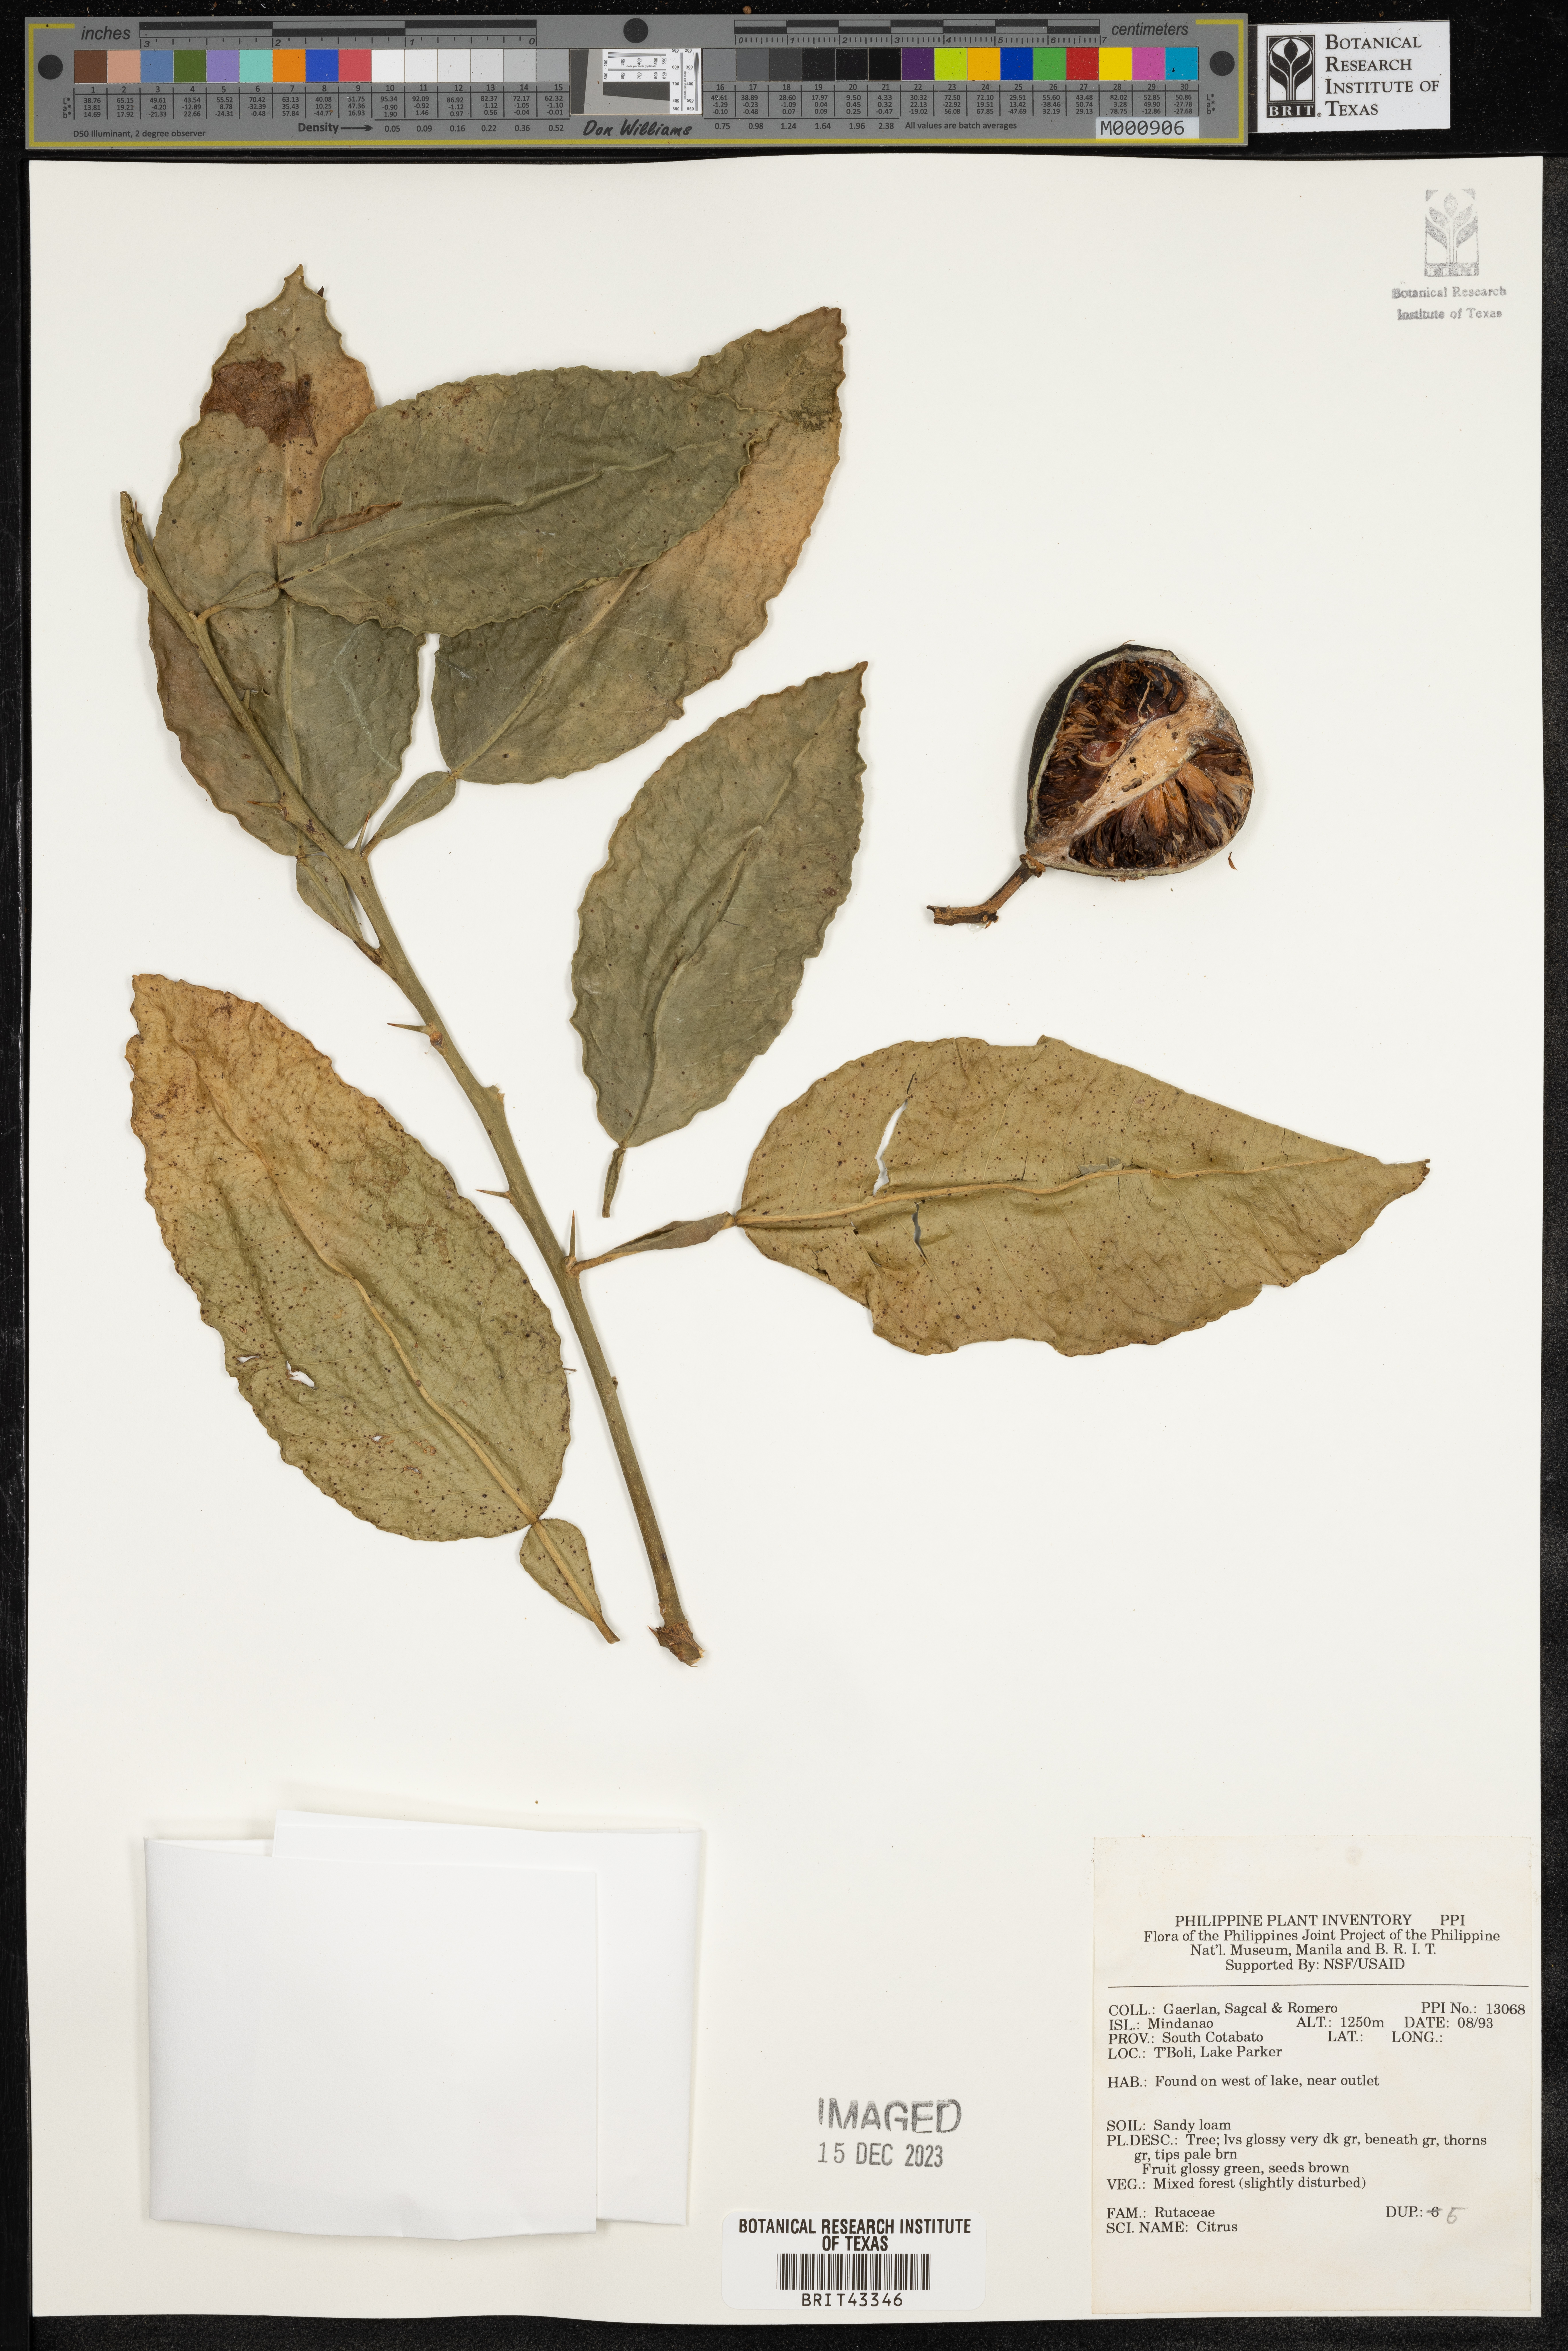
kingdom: Plantae
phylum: Tracheophyta
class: Magnoliopsida
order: Sapindales
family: Rutaceae
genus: Citrus
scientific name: Citrus
